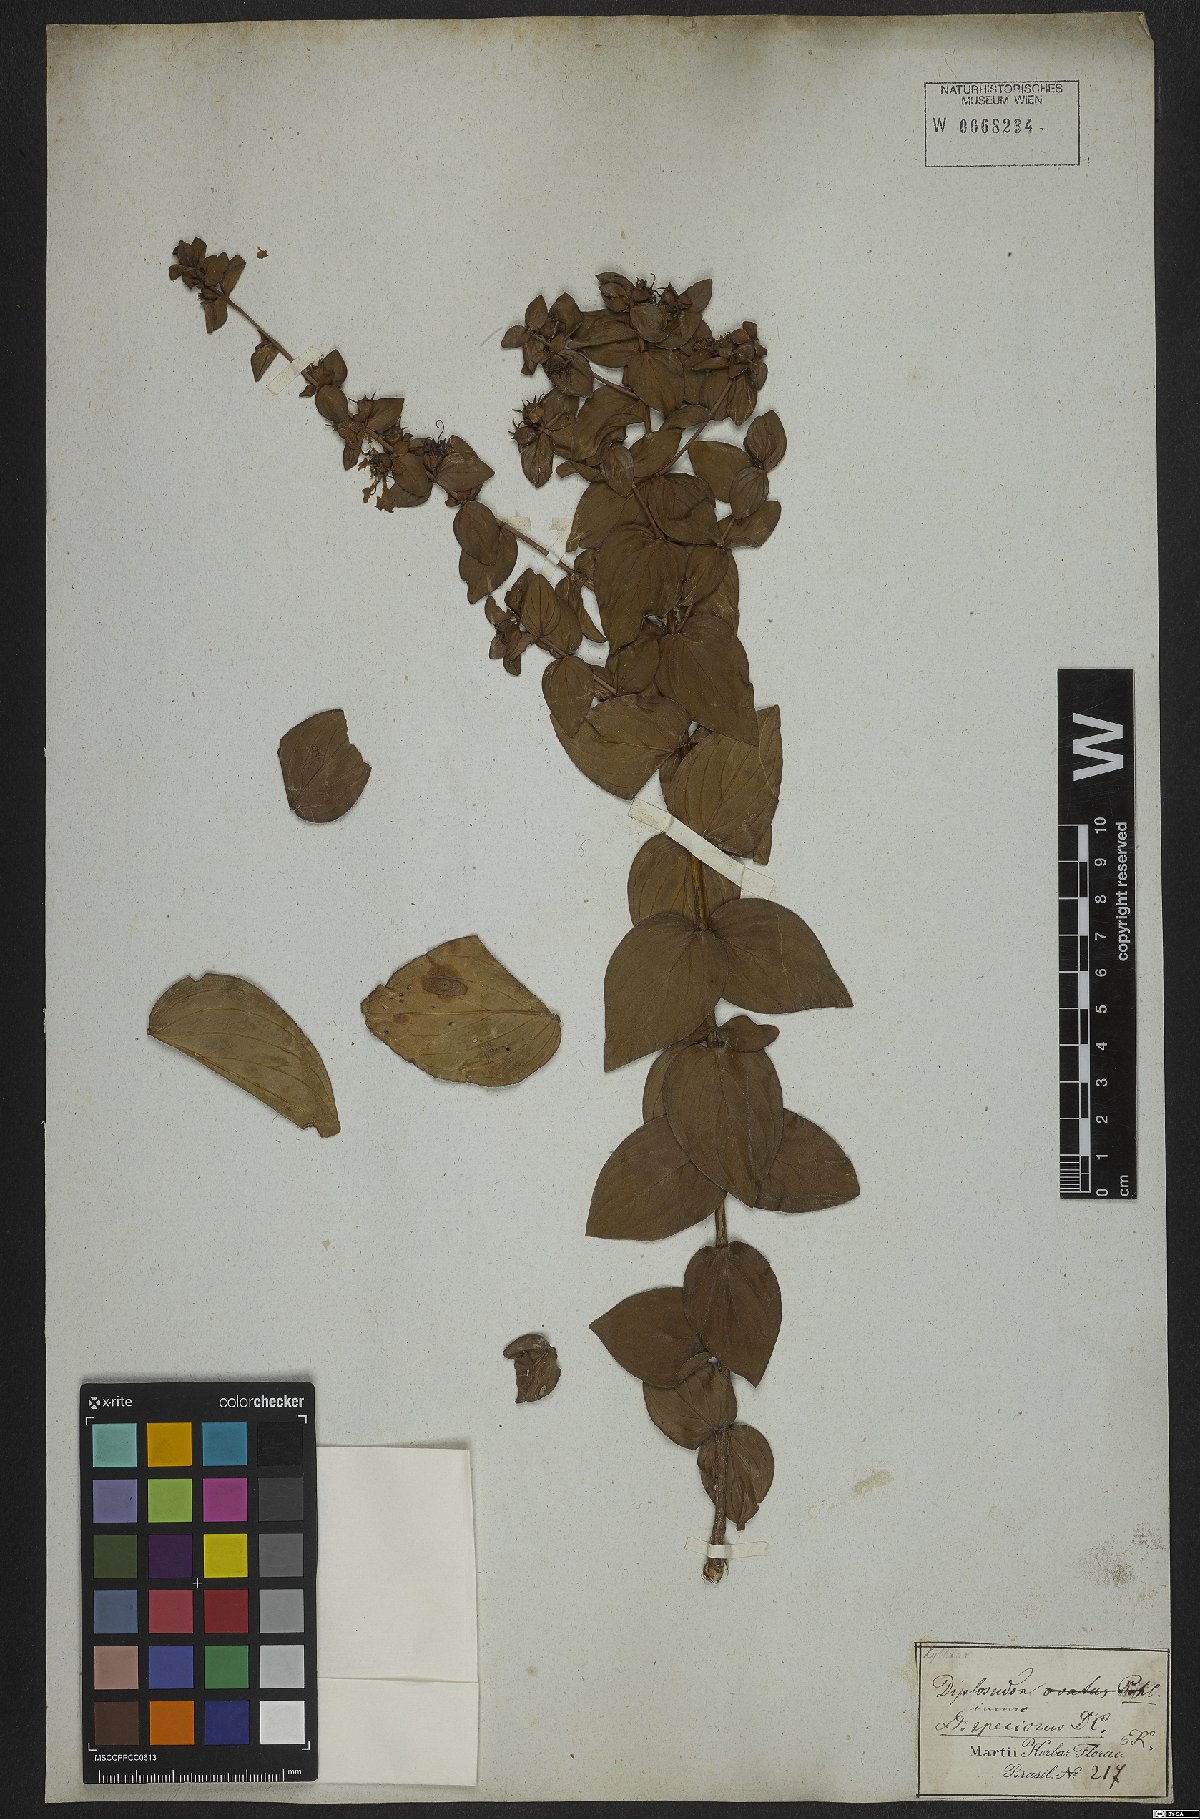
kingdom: Plantae
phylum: Tracheophyta
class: Magnoliopsida
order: Myrtales
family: Lythraceae
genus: Cuphea
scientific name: Cuphea llavea
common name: Tiny-mice
